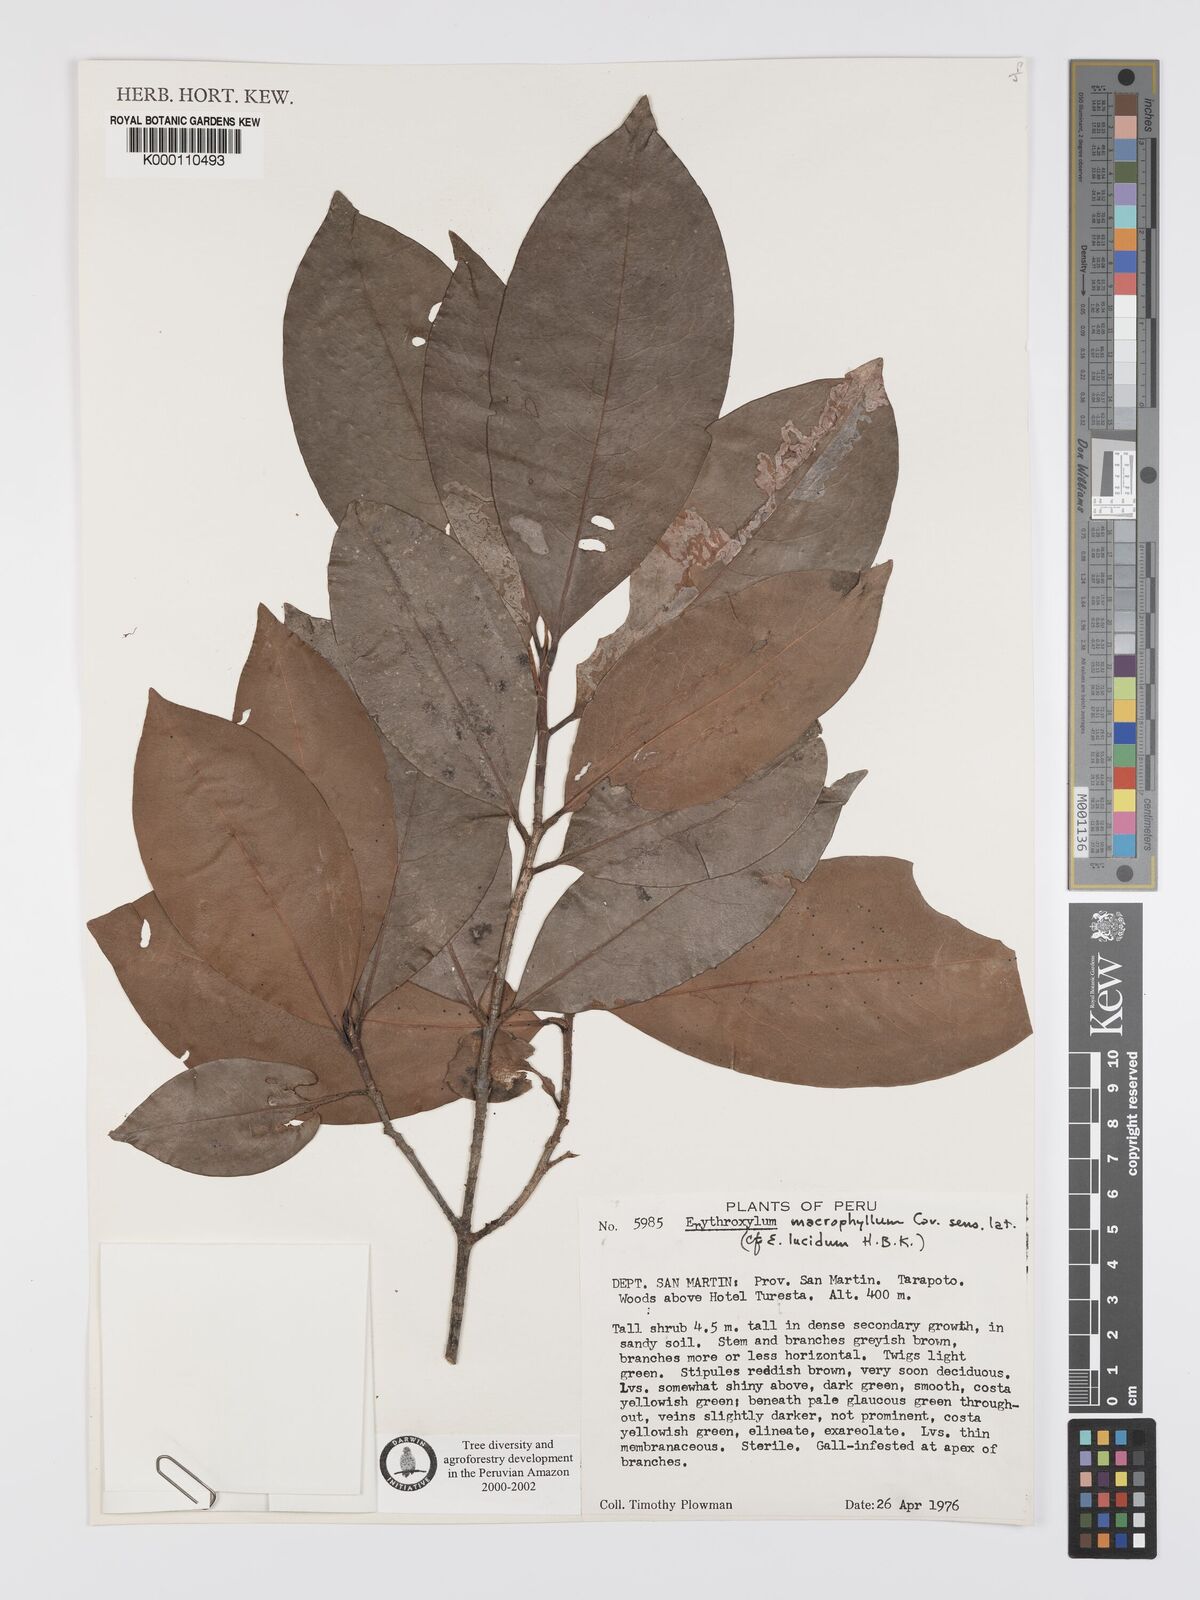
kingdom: Plantae
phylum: Tracheophyta
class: Magnoliopsida
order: Malpighiales
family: Erythroxylaceae
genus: Erythroxylum
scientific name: Erythroxylum
